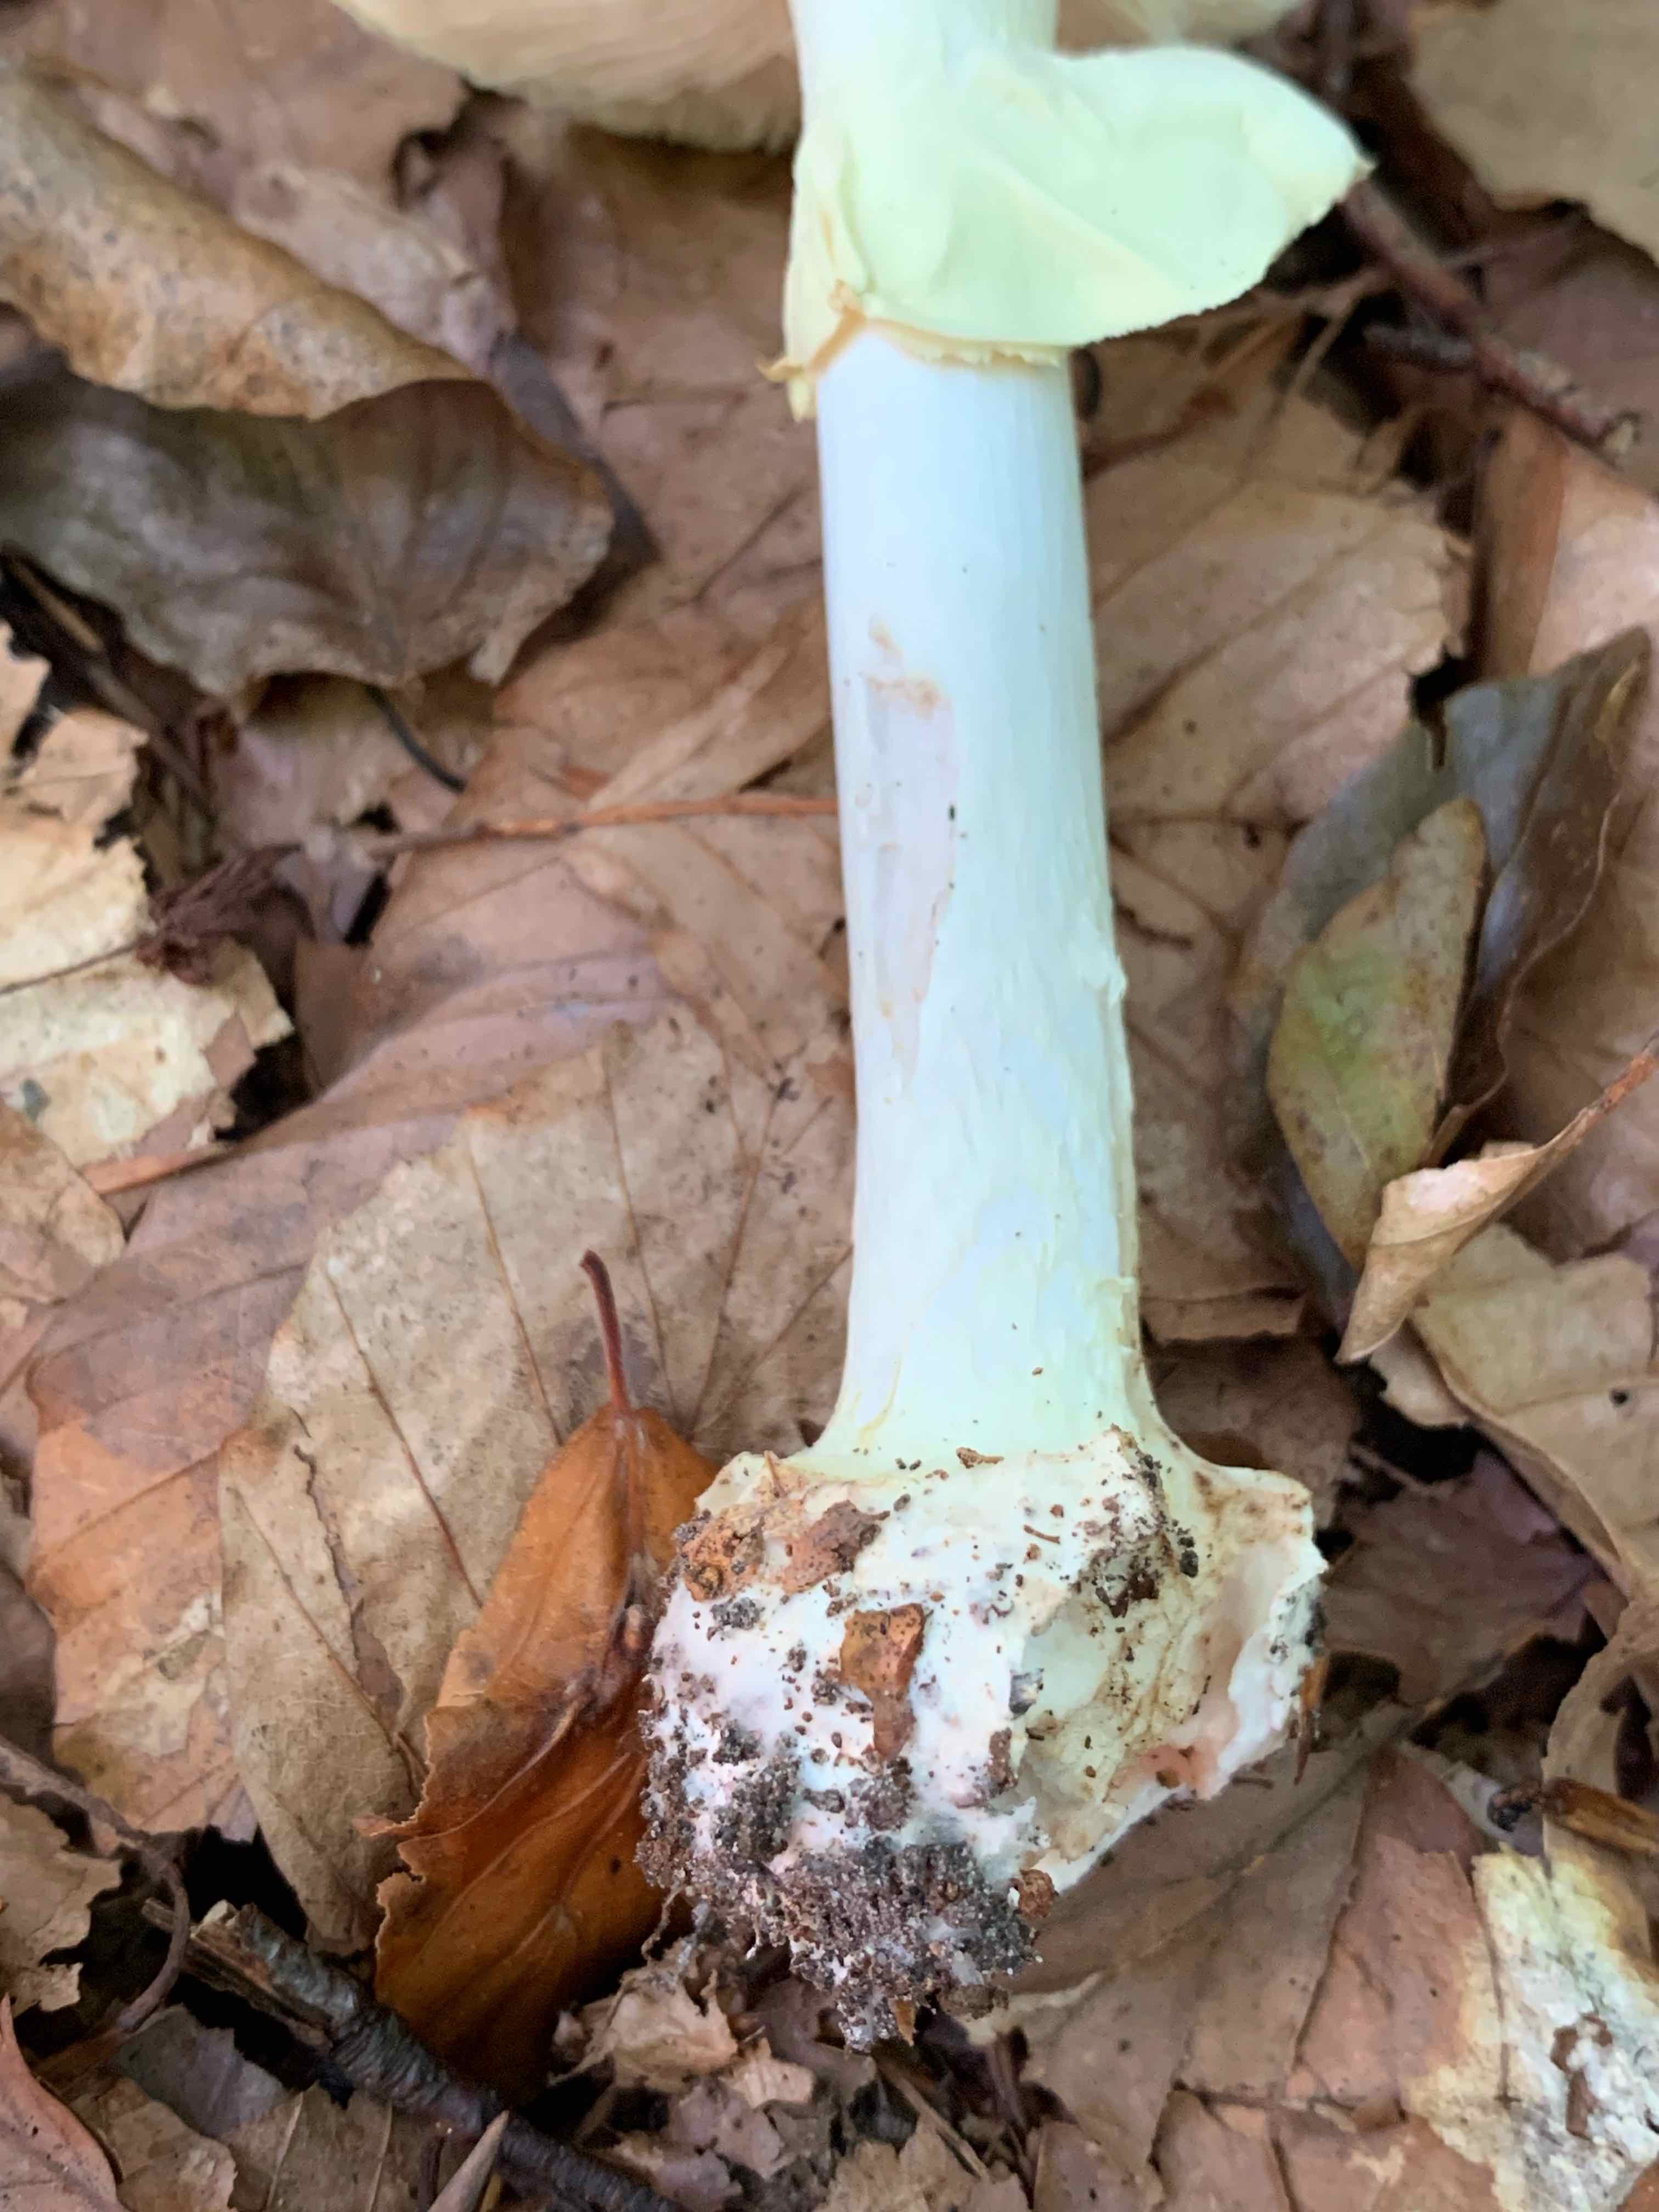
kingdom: Fungi
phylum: Basidiomycota
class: Agaricomycetes
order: Agaricales
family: Amanitaceae
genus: Amanita
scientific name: Amanita citrina
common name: kugleknoldet fluesvamp
